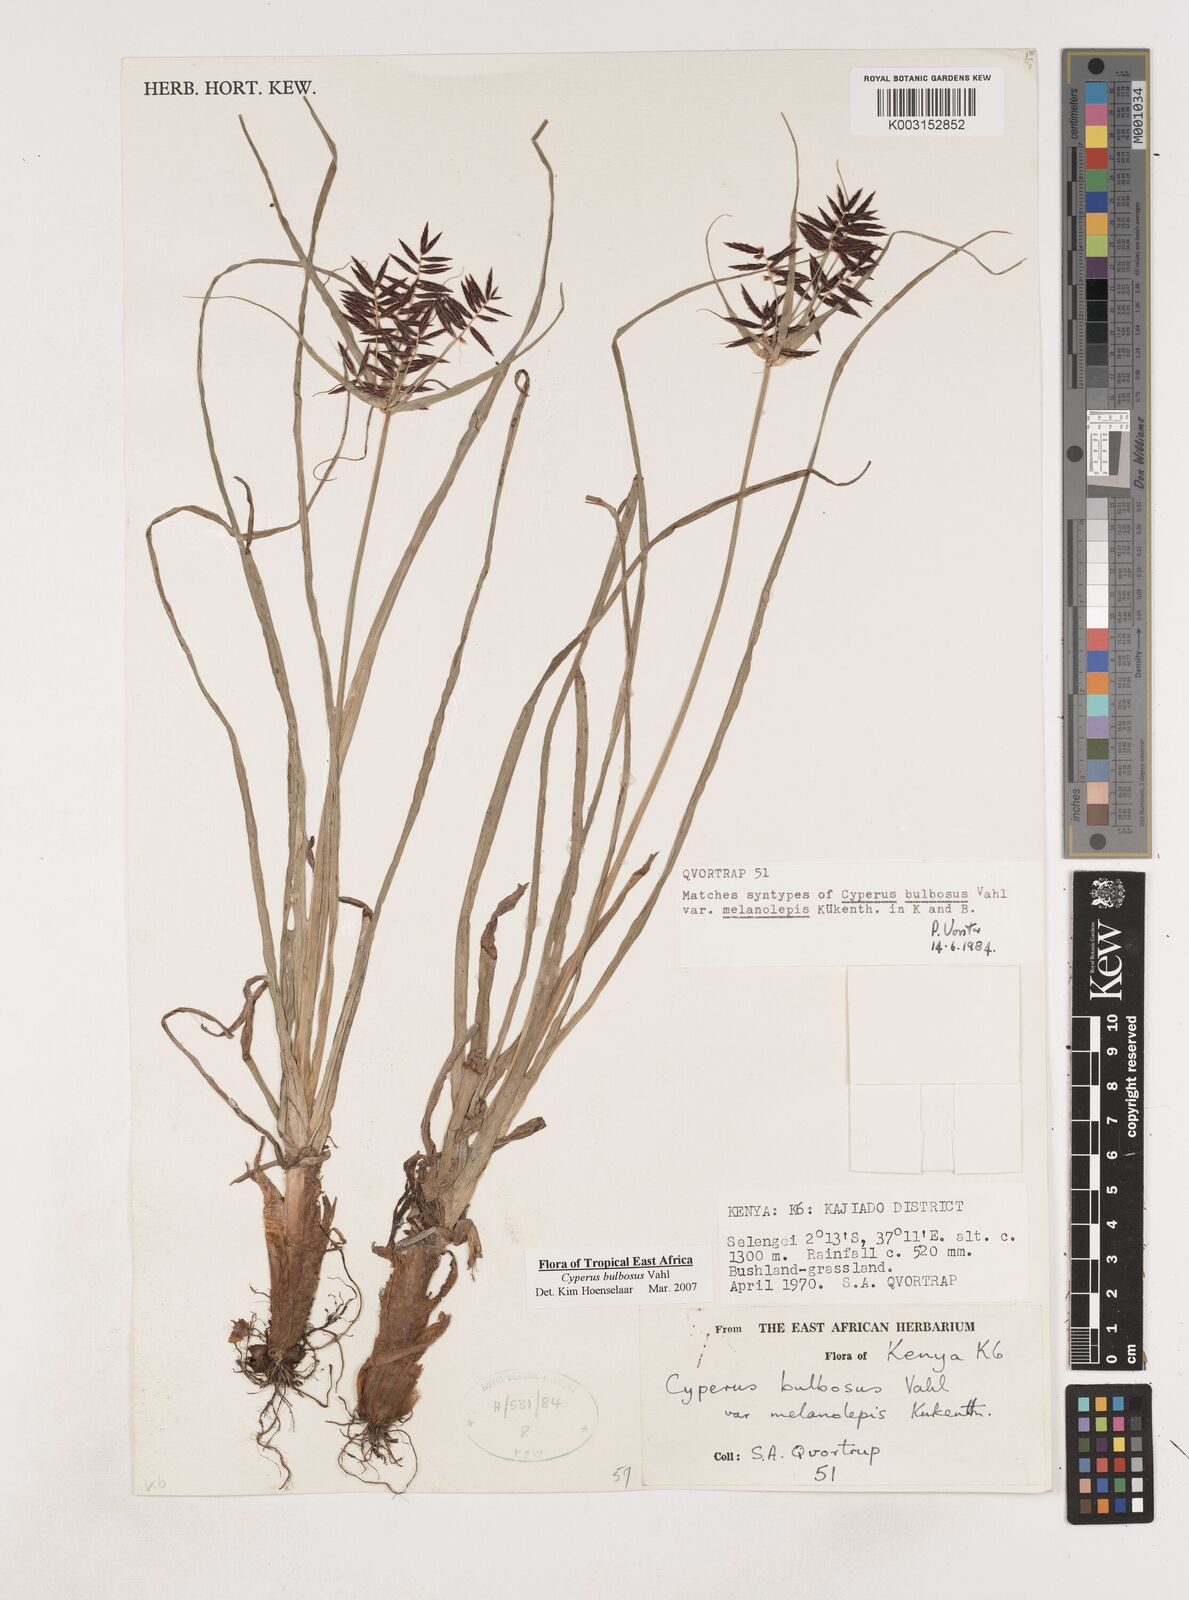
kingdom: Plantae
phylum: Tracheophyta
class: Liliopsida
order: Poales
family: Cyperaceae
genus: Cyperus
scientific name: Cyperus bulbosus
